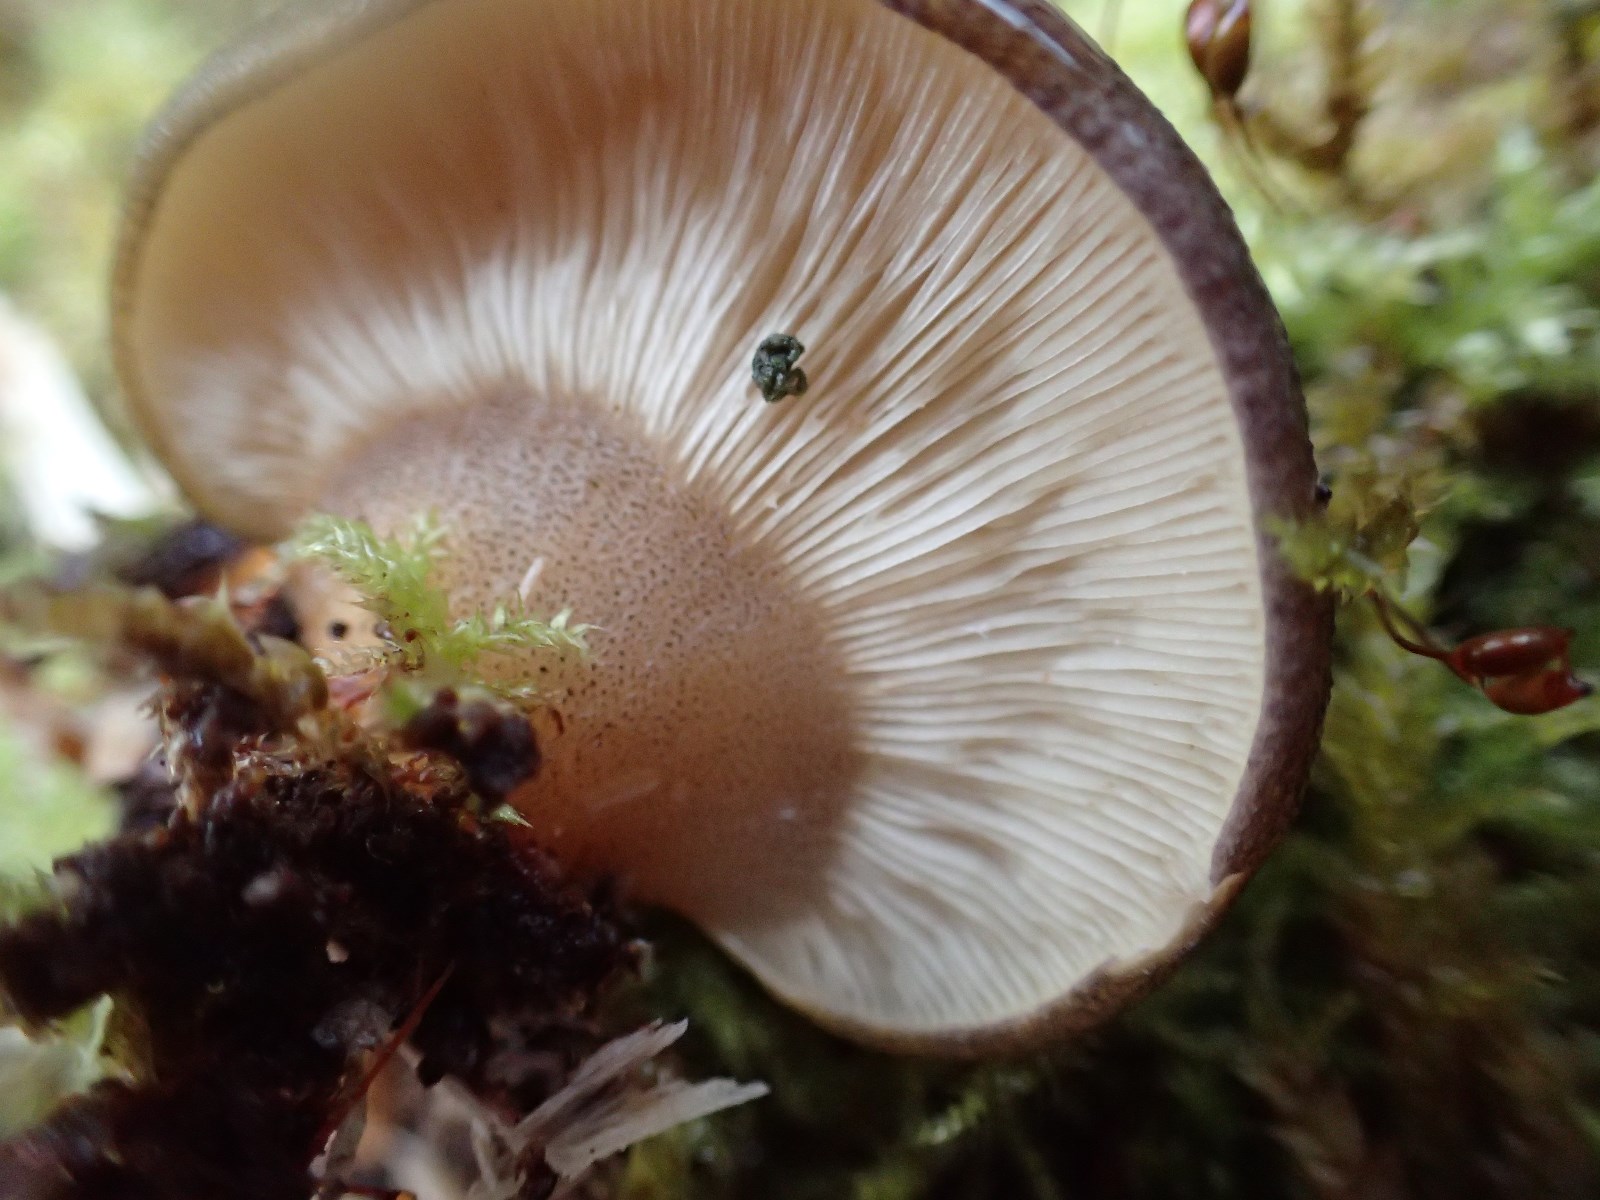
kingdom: Fungi
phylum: Basidiomycota
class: Agaricomycetes
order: Agaricales
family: Sarcomyxaceae
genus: Sarcomyxa
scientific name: Sarcomyxa serotina
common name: gummihat
